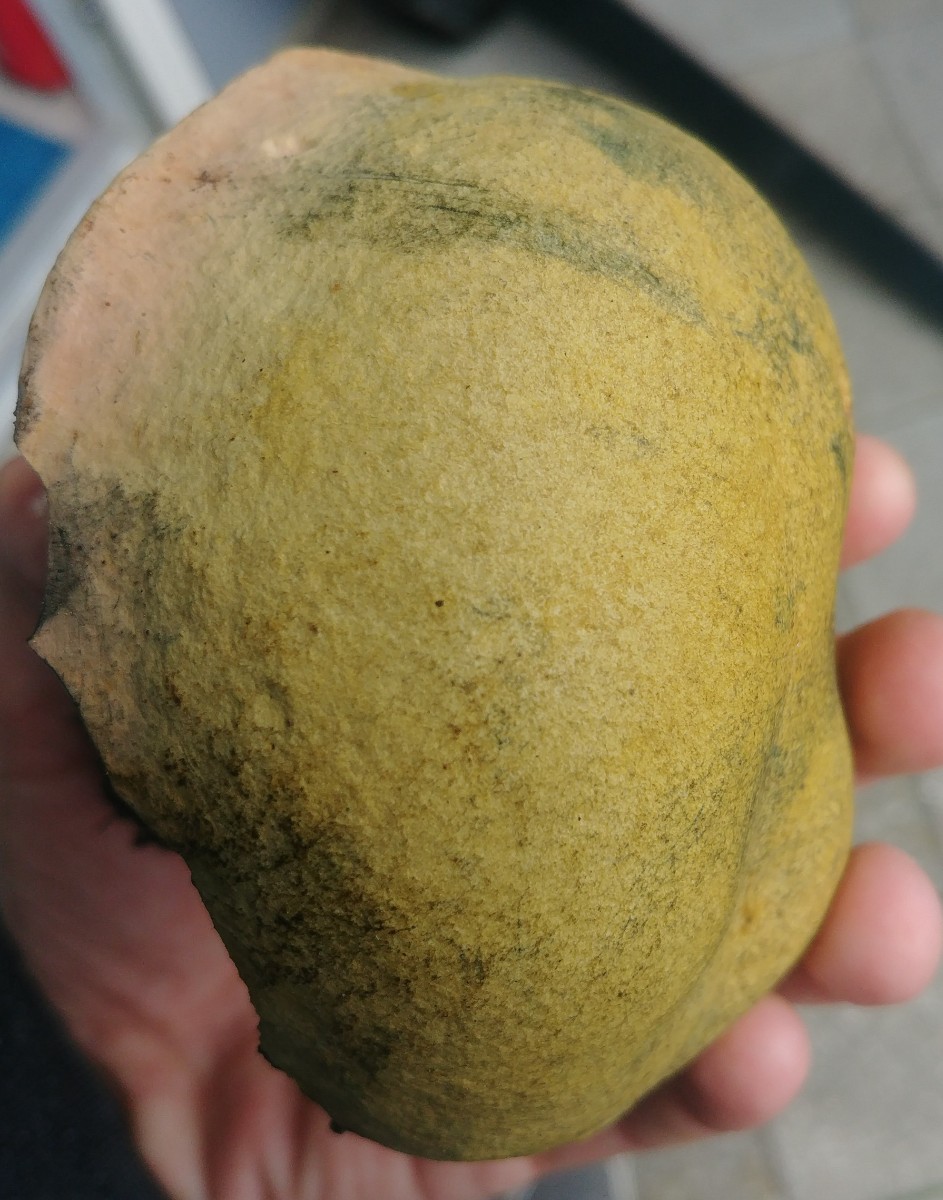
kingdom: Fungi
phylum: Basidiomycota
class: Agaricomycetes
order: Boletales
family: Boletaceae
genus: Suillellus
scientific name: Suillellus luridus
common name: netstokket indigorørhat
